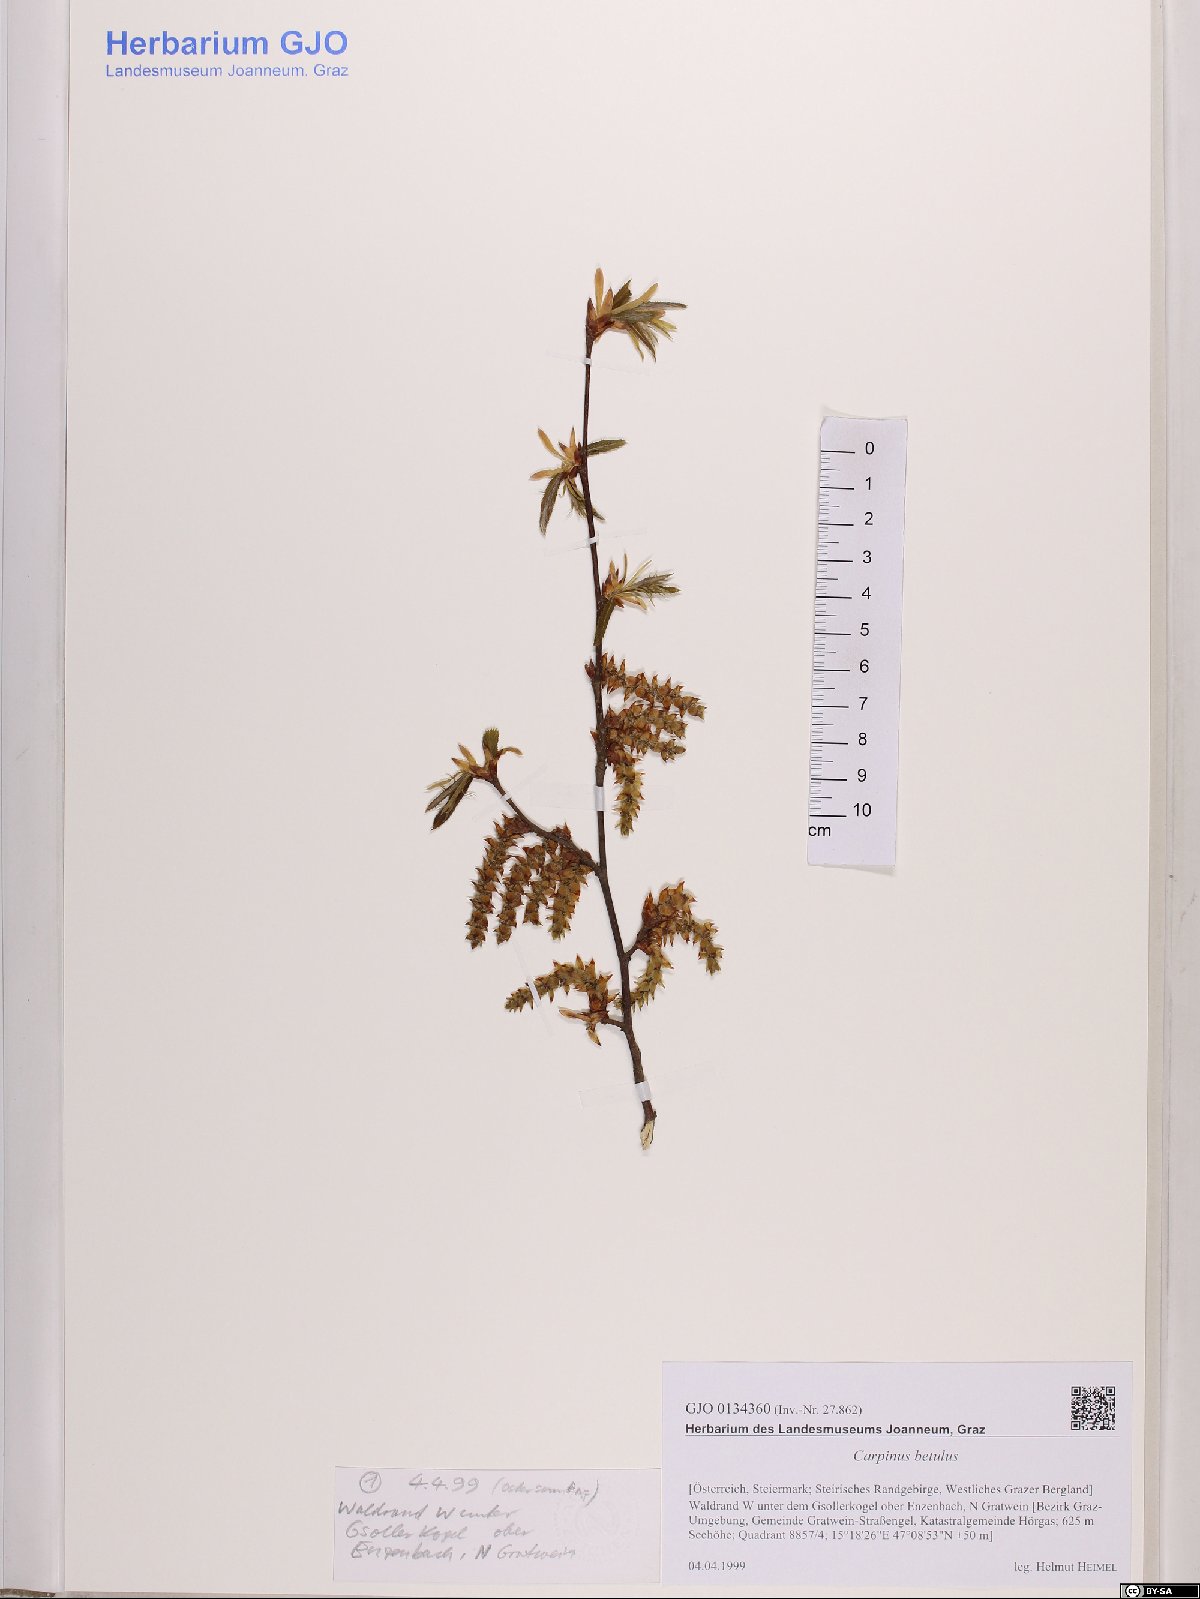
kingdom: Plantae
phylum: Tracheophyta
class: Magnoliopsida
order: Fagales
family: Betulaceae
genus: Carpinus
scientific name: Carpinus betulus
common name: Hornbeam
